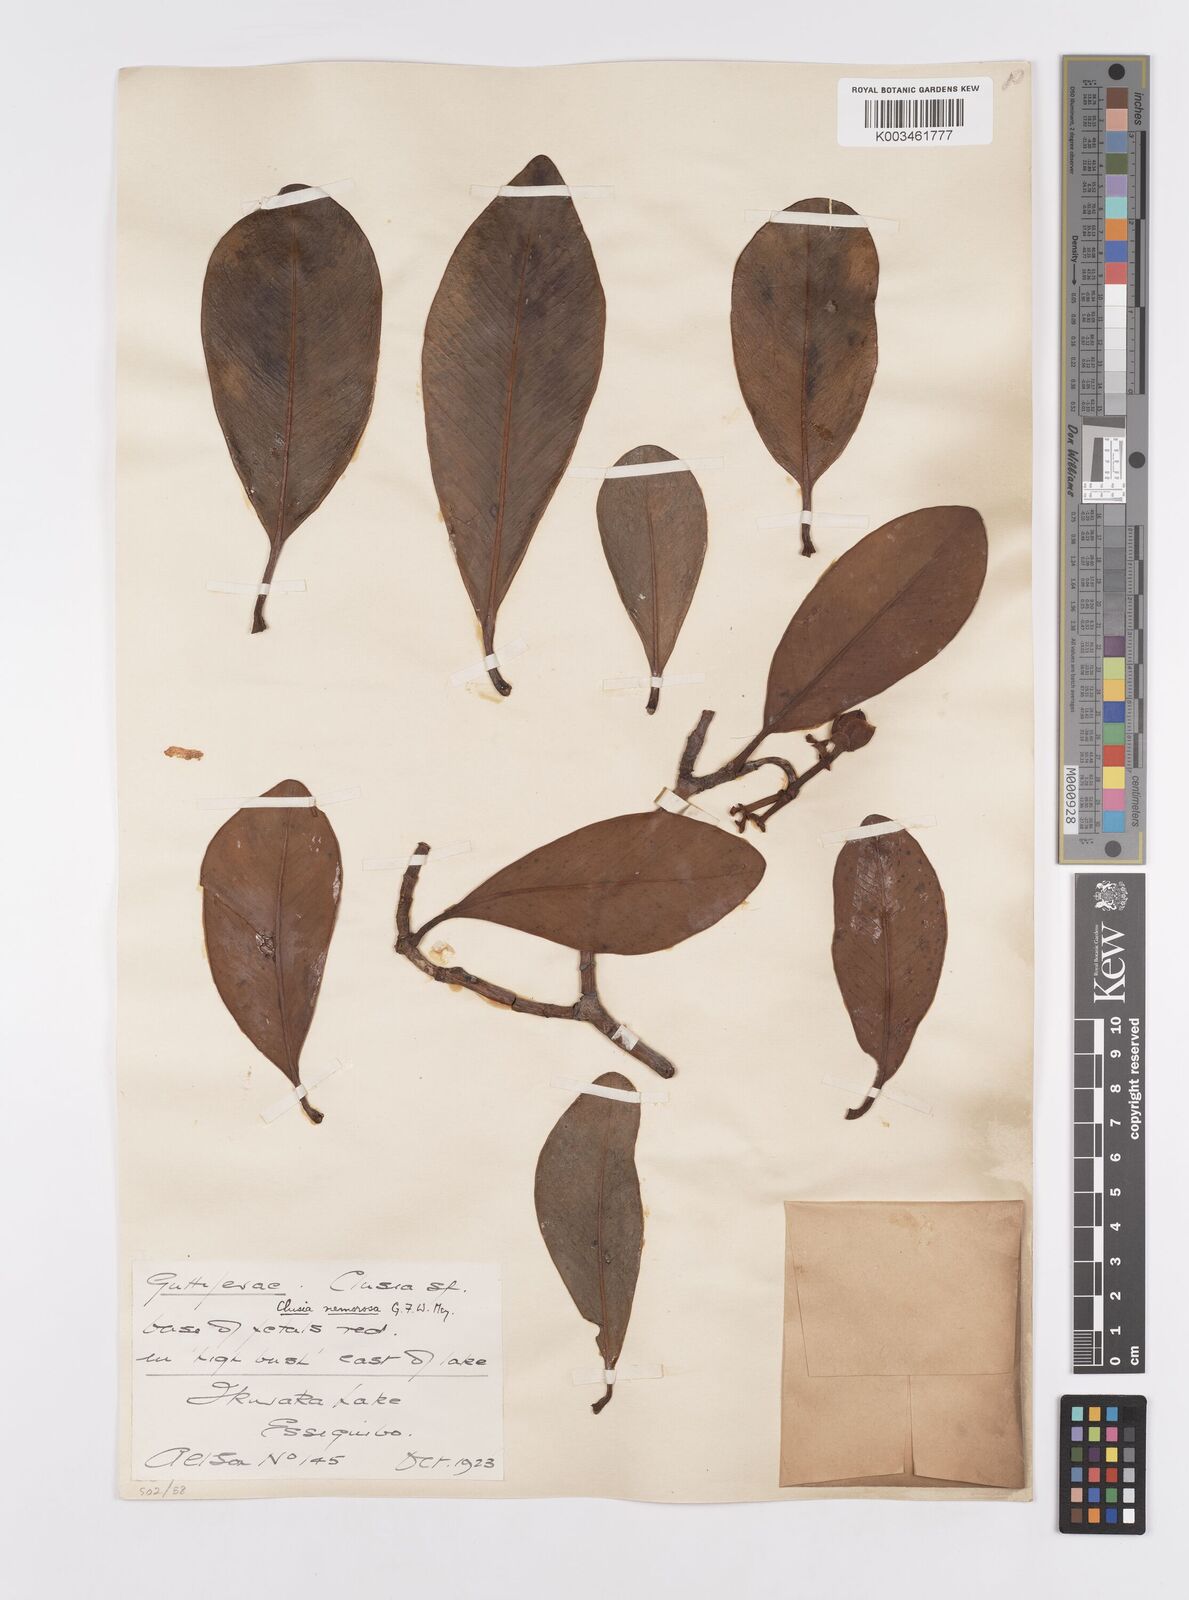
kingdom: Plantae
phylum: Tracheophyta
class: Magnoliopsida
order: Malpighiales
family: Clusiaceae
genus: Clusia
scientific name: Clusia nemorosa
